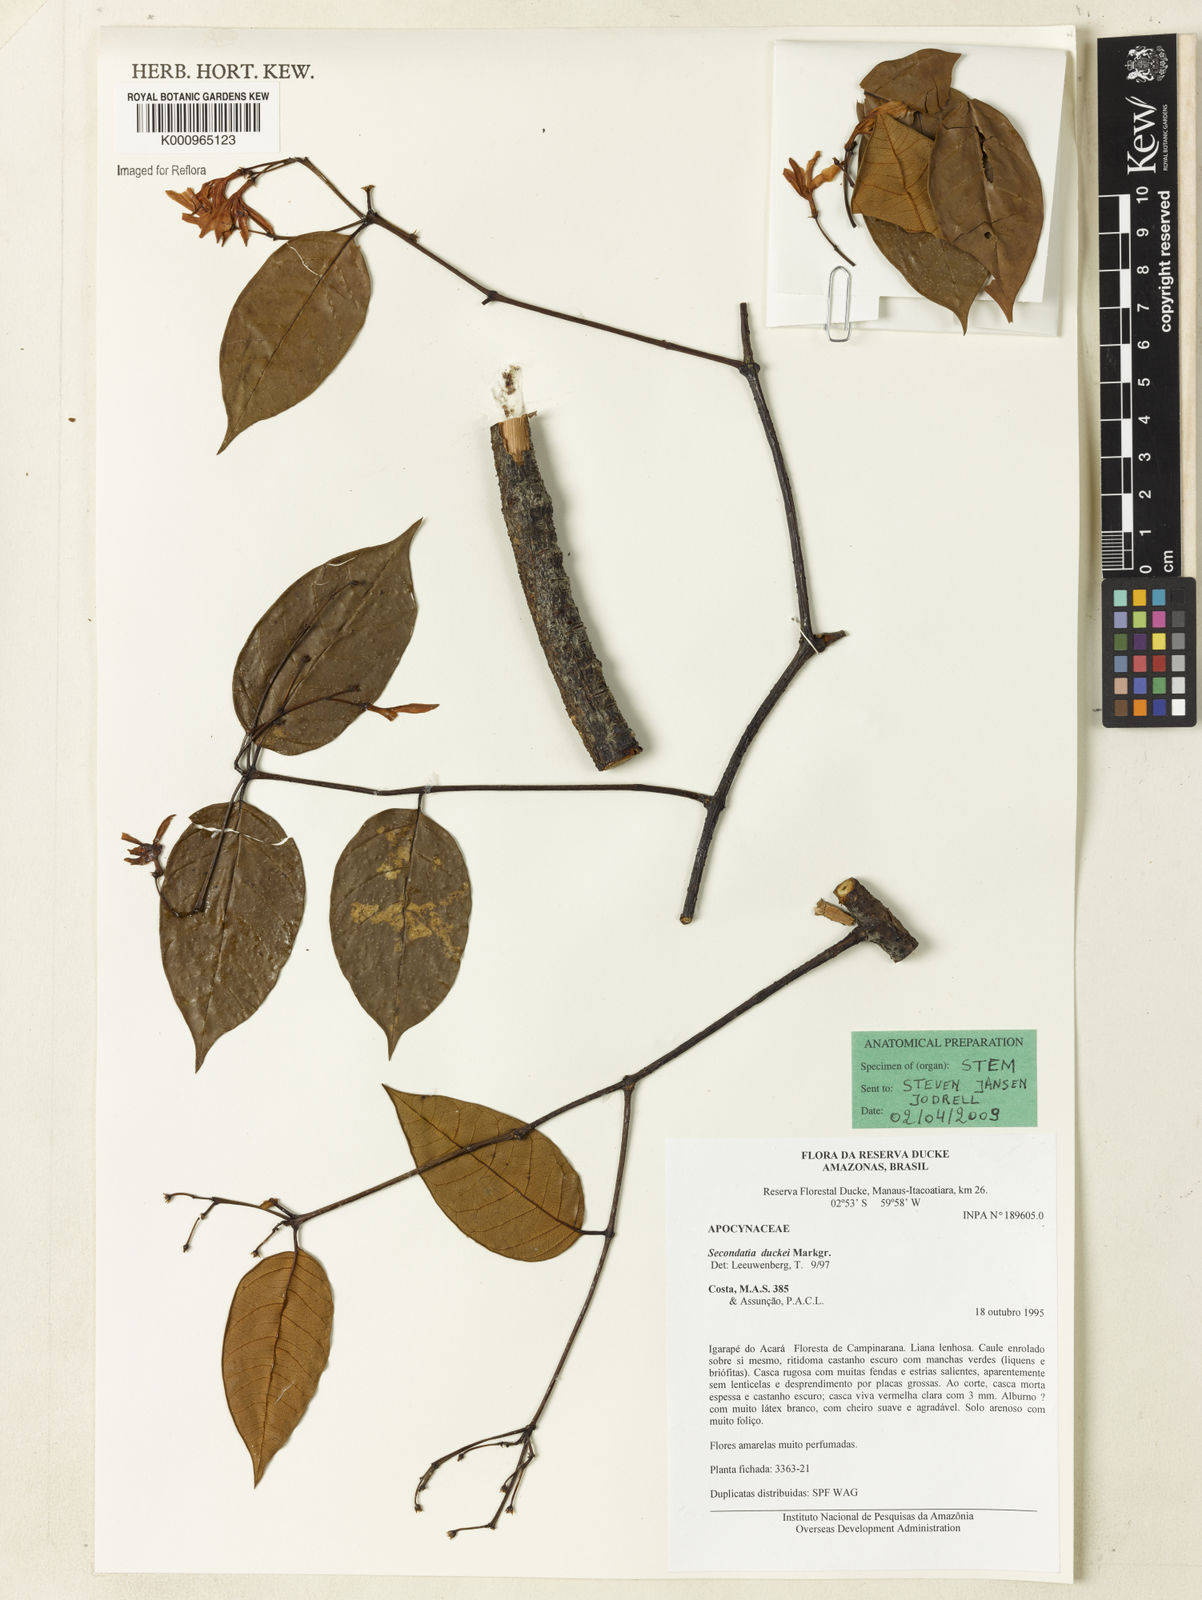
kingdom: Plantae
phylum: Tracheophyta
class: Magnoliopsida
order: Gentianales
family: Apocynaceae
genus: Secondatia
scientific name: Secondatia duckei
